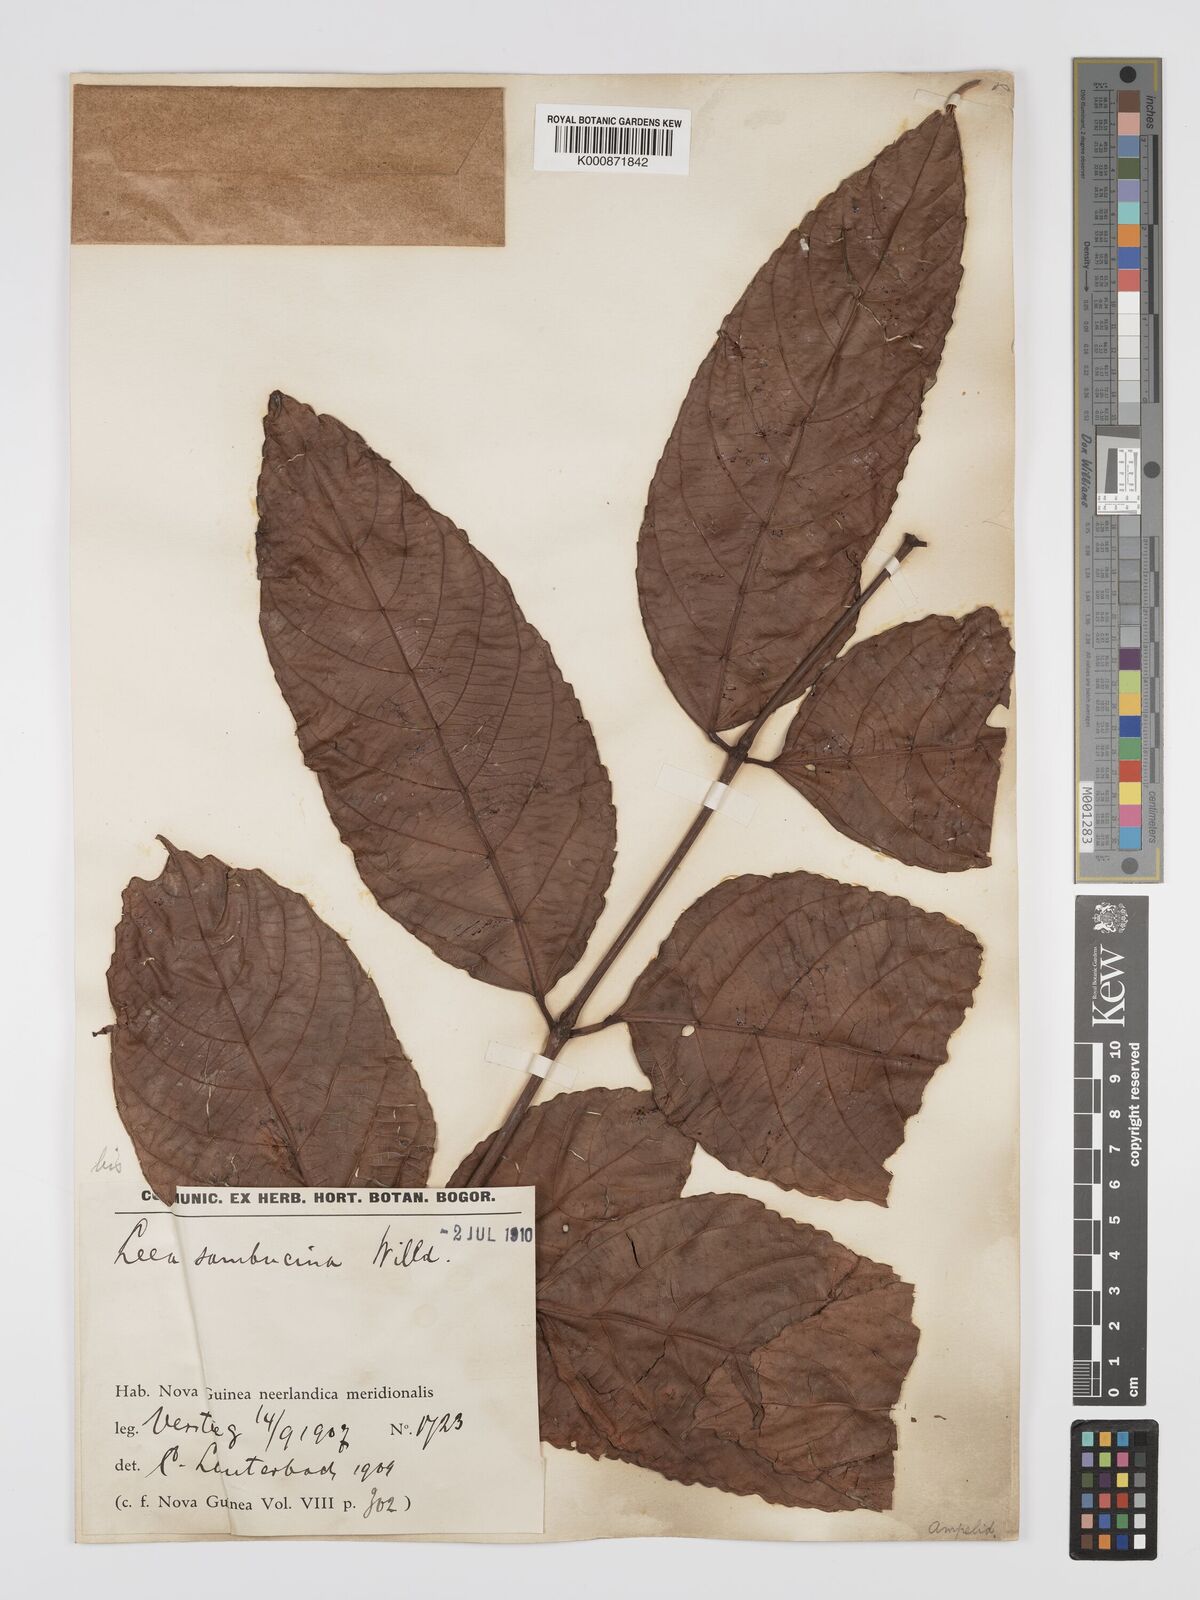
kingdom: Plantae
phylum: Tracheophyta
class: Magnoliopsida
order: Vitales
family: Vitaceae
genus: Leea
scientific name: Leea indica
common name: Bandicoot-berry
